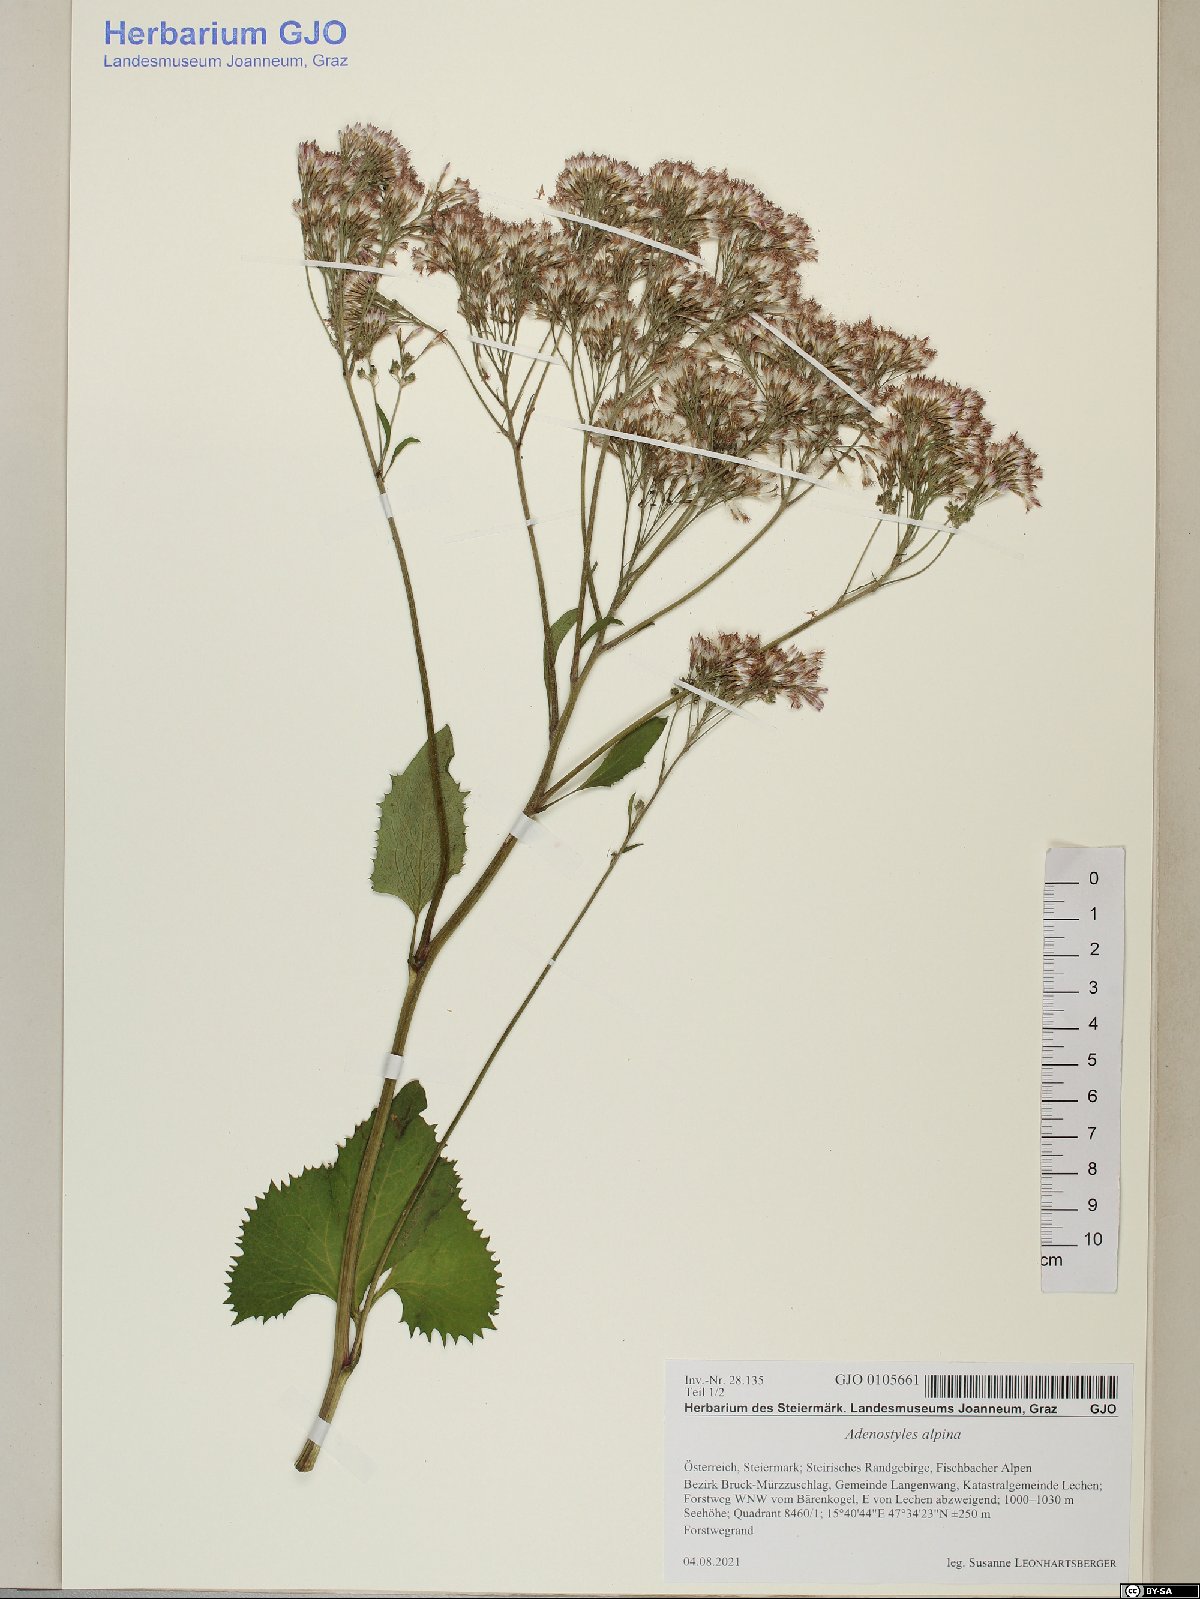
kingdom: Plantae
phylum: Tracheophyta
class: Magnoliopsida
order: Asterales
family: Asteraceae
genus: Adenostyles
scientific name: Adenostyles alpina
